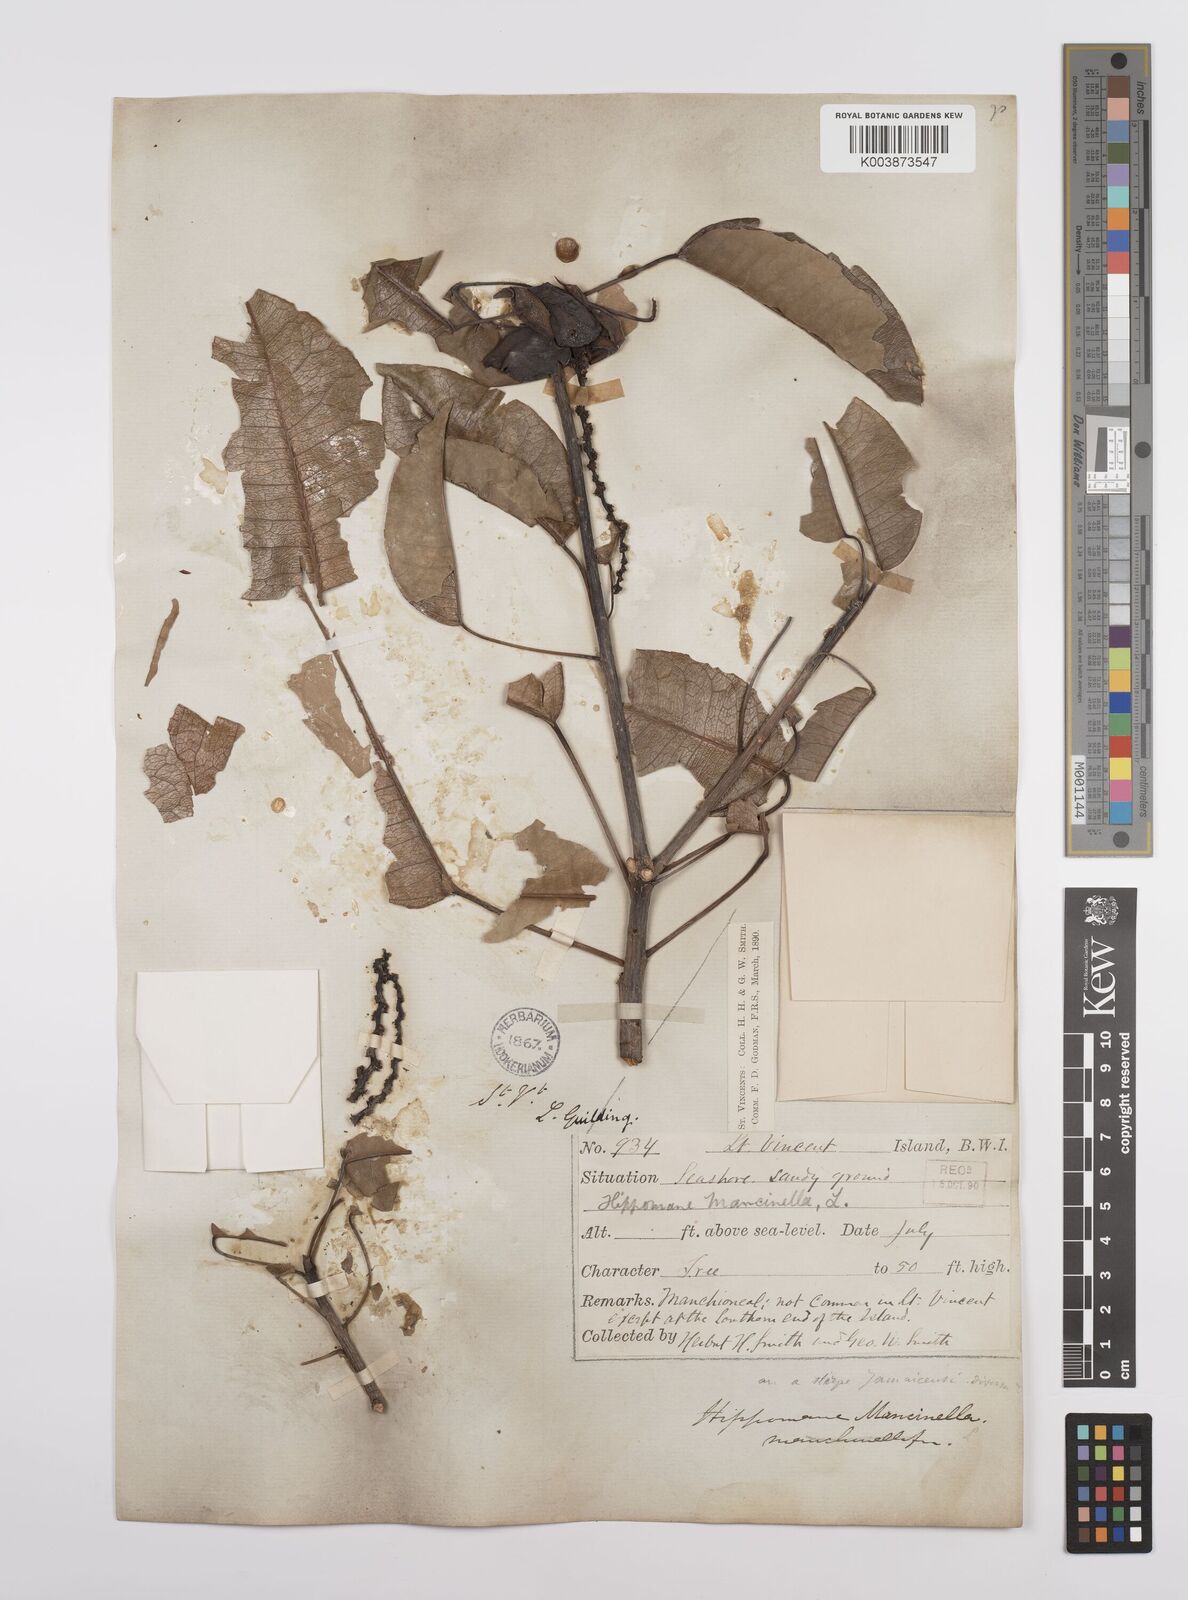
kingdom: Plantae
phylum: Tracheophyta
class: Magnoliopsida
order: Malpighiales
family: Euphorbiaceae
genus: Hippomane
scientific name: Hippomane mancinella
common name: Manchineel
